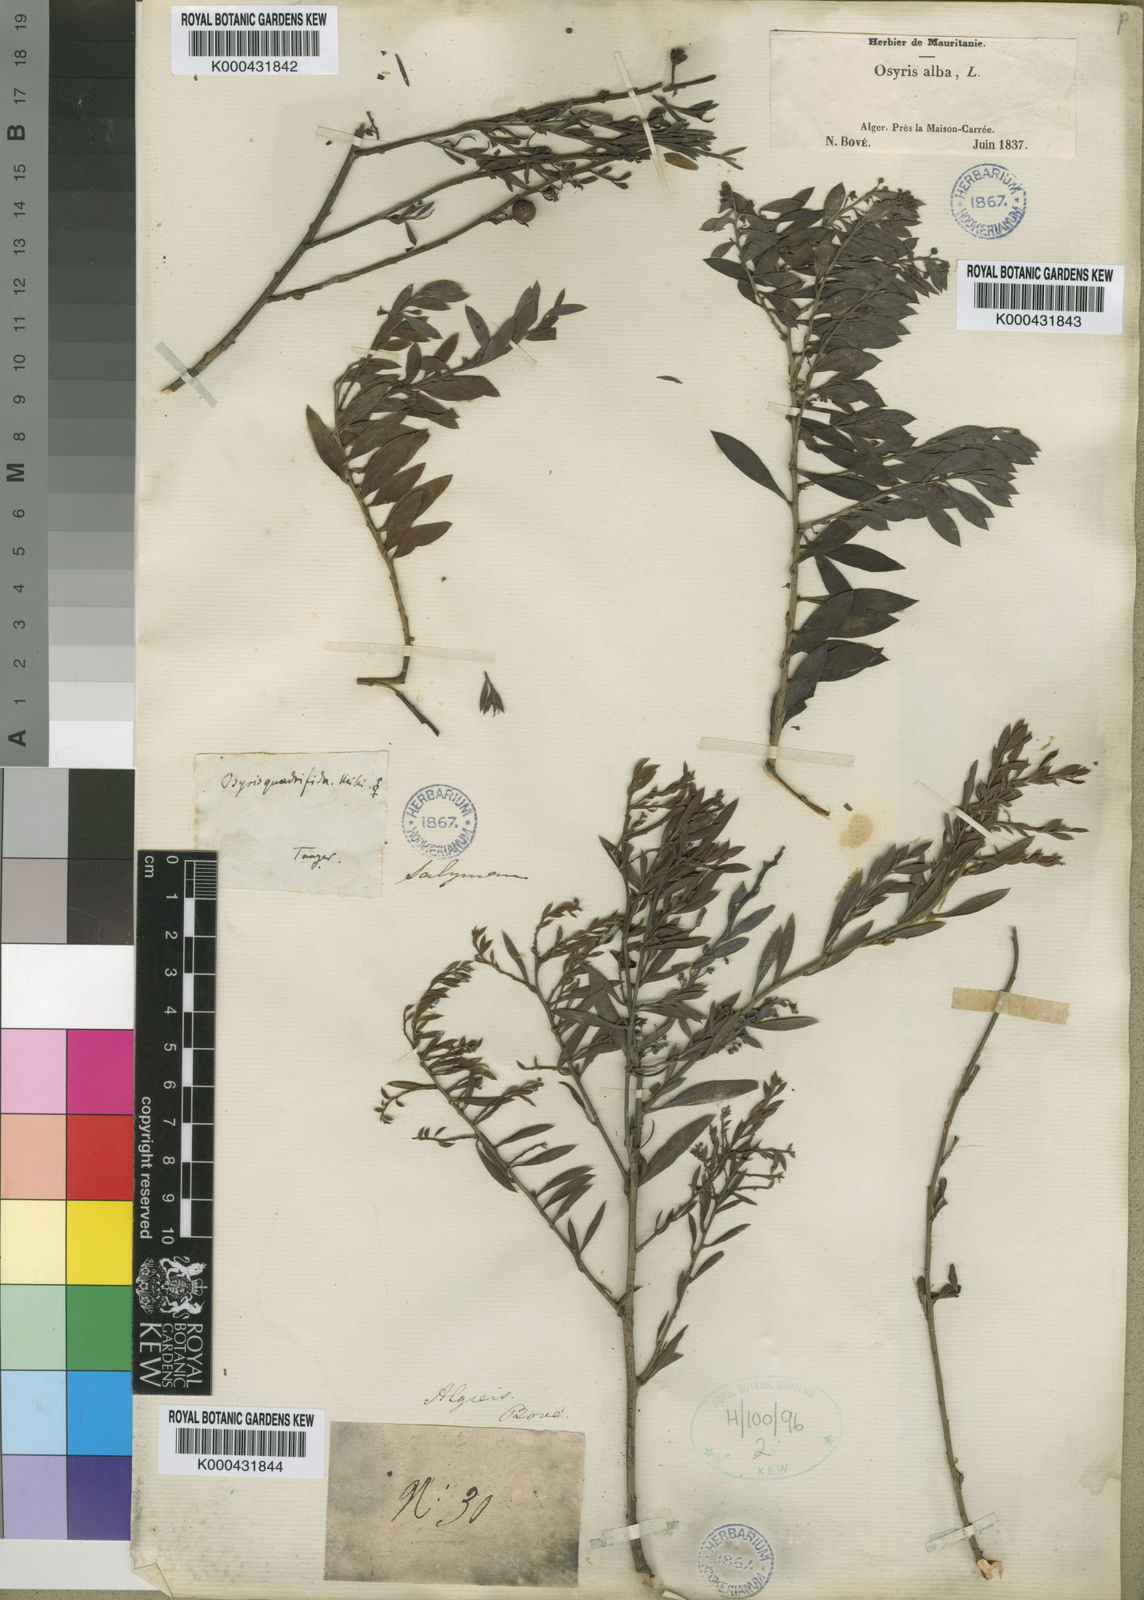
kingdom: Plantae
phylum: Tracheophyta
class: Magnoliopsida
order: Santalales
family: Santalaceae
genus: Osyris
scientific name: Osyris lanceolata
